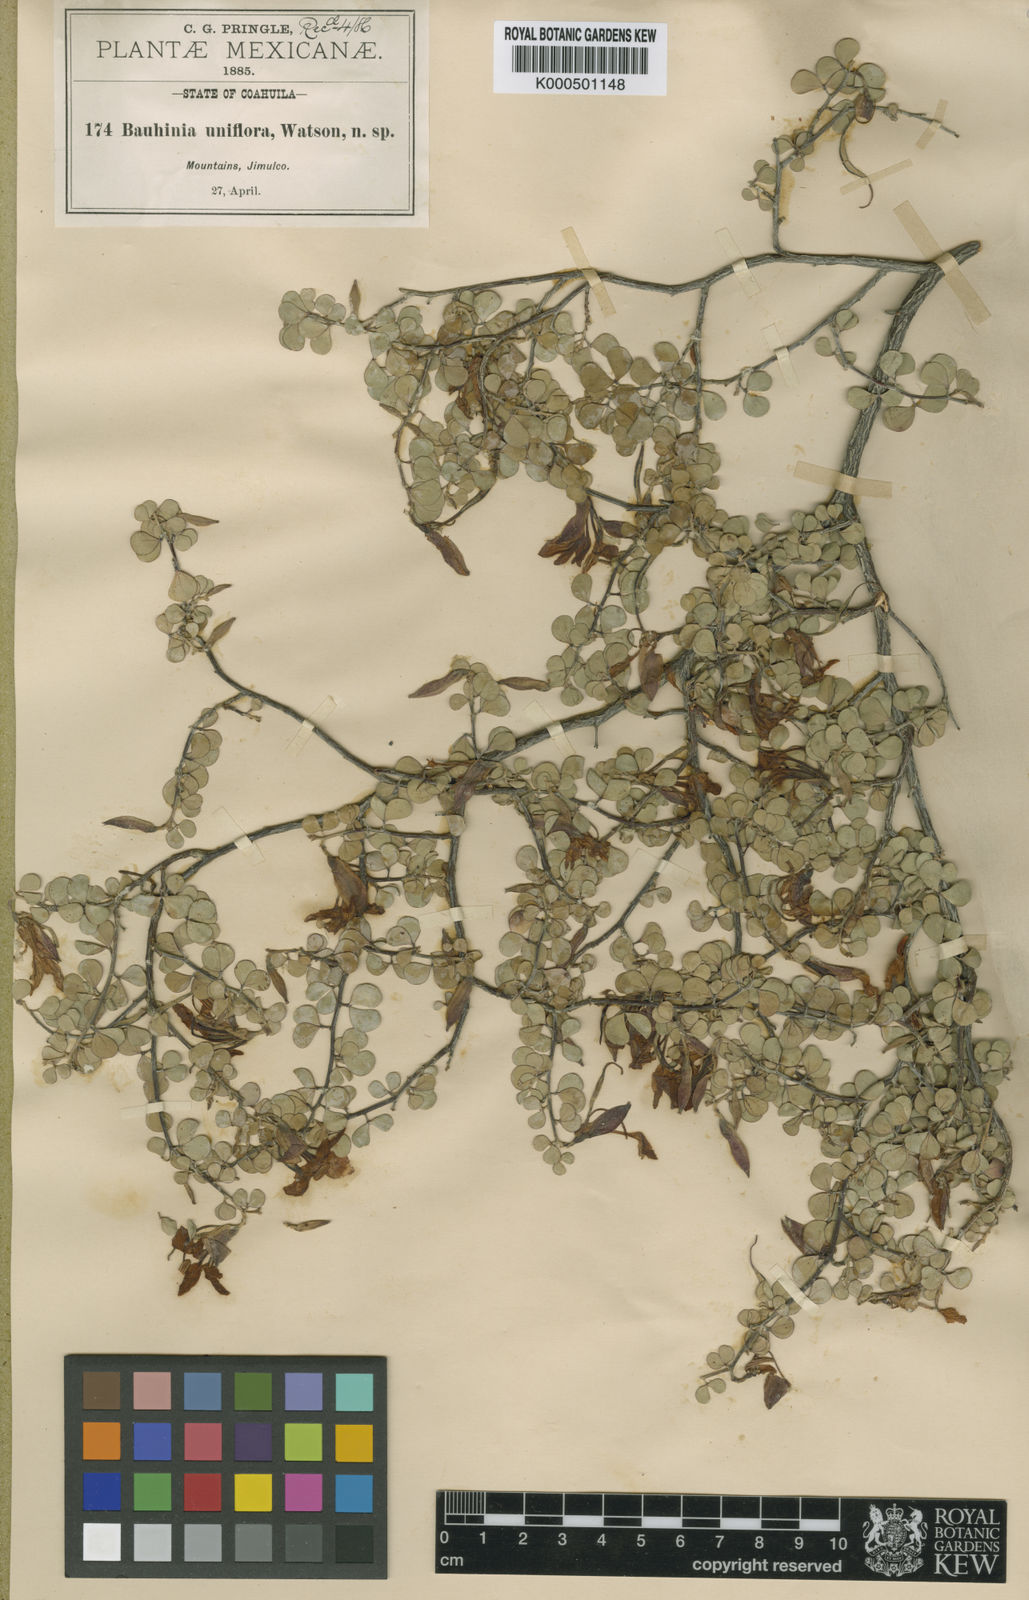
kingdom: Plantae
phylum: Tracheophyta
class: Magnoliopsida
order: Fabales
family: Fabaceae
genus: Bauhinia
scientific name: Bauhinia ramosissima
